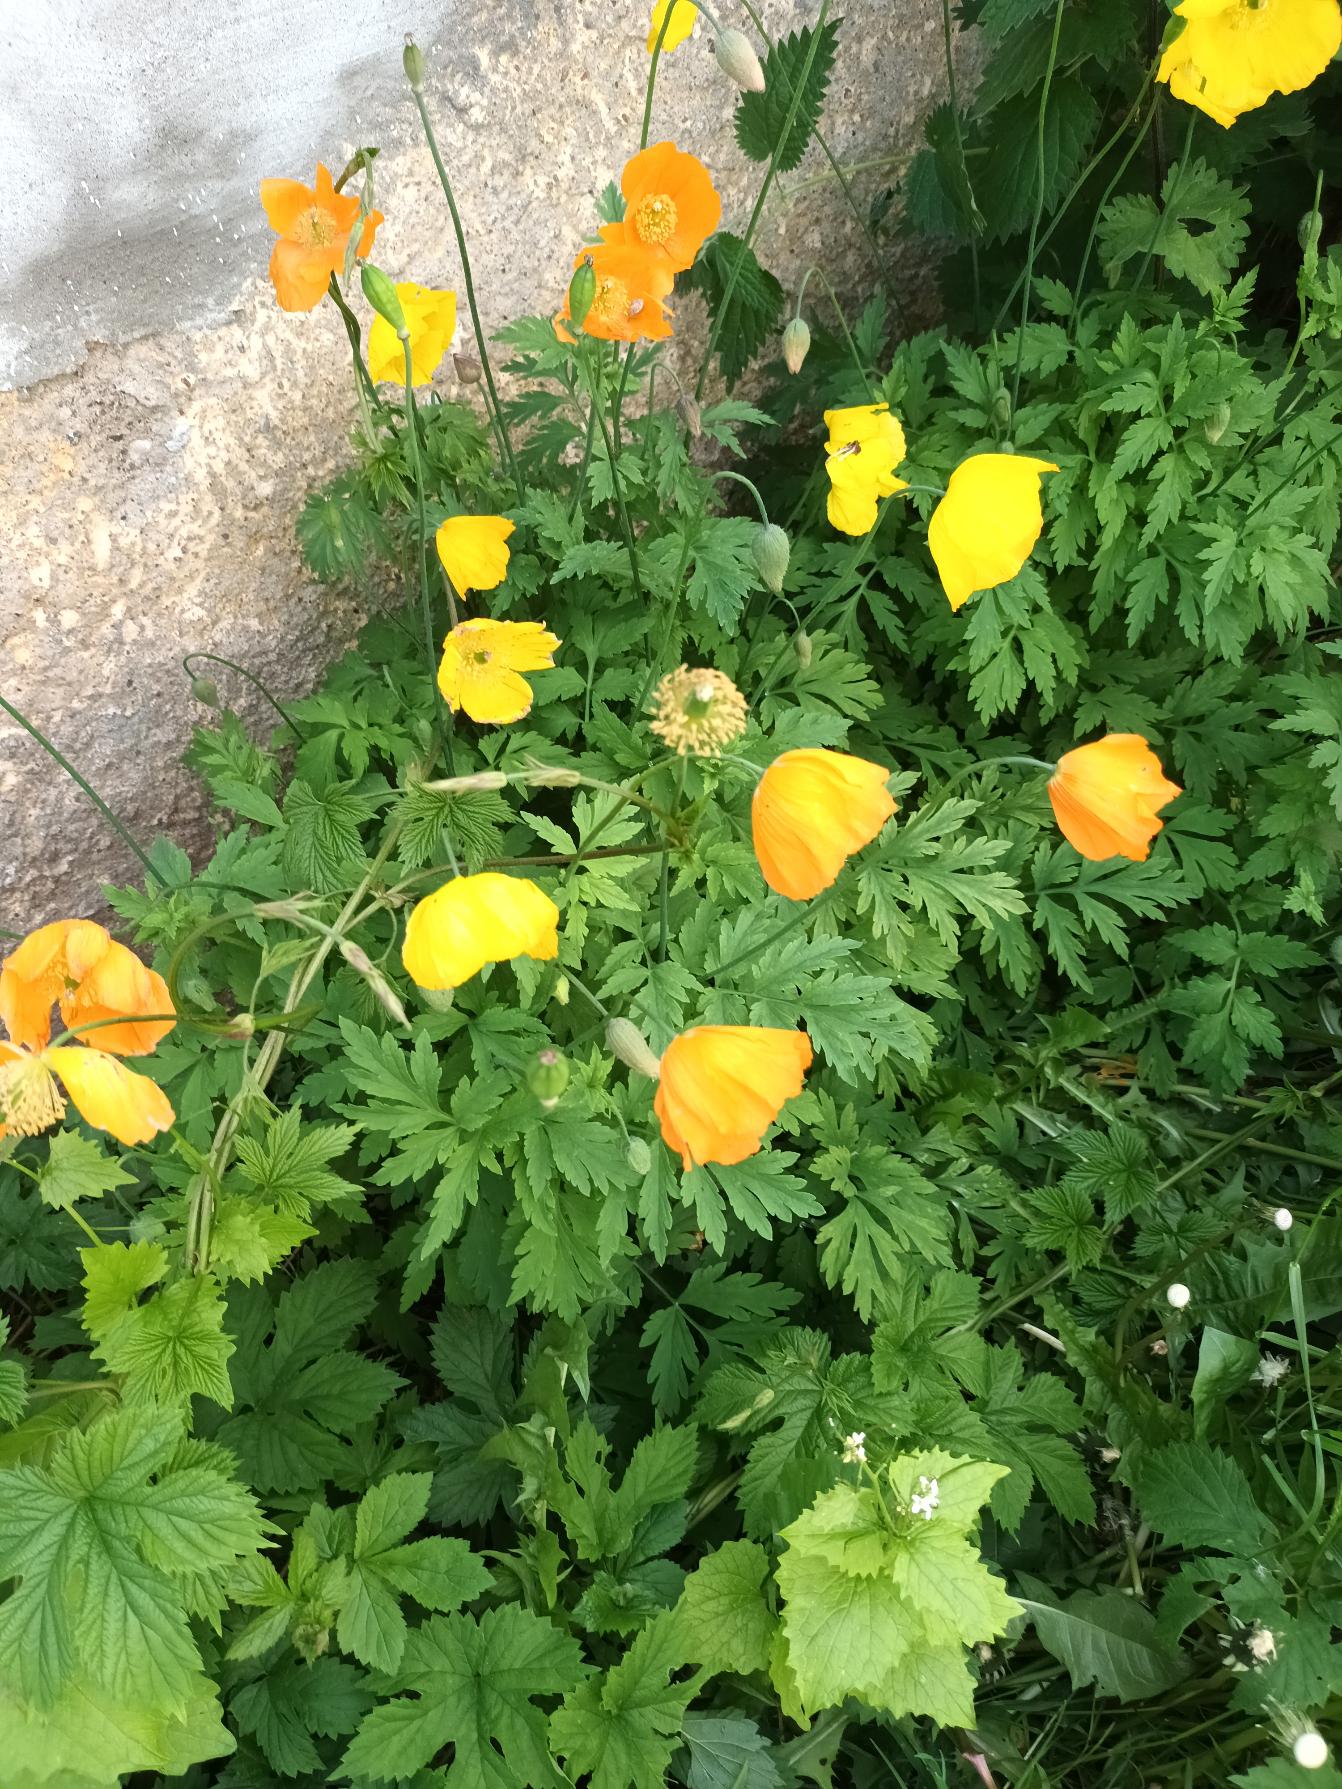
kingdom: Plantae
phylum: Tracheophyta
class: Magnoliopsida
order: Ranunculales
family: Papaveraceae
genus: Papaver
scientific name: Papaver cambricum
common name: Skov-valmue
